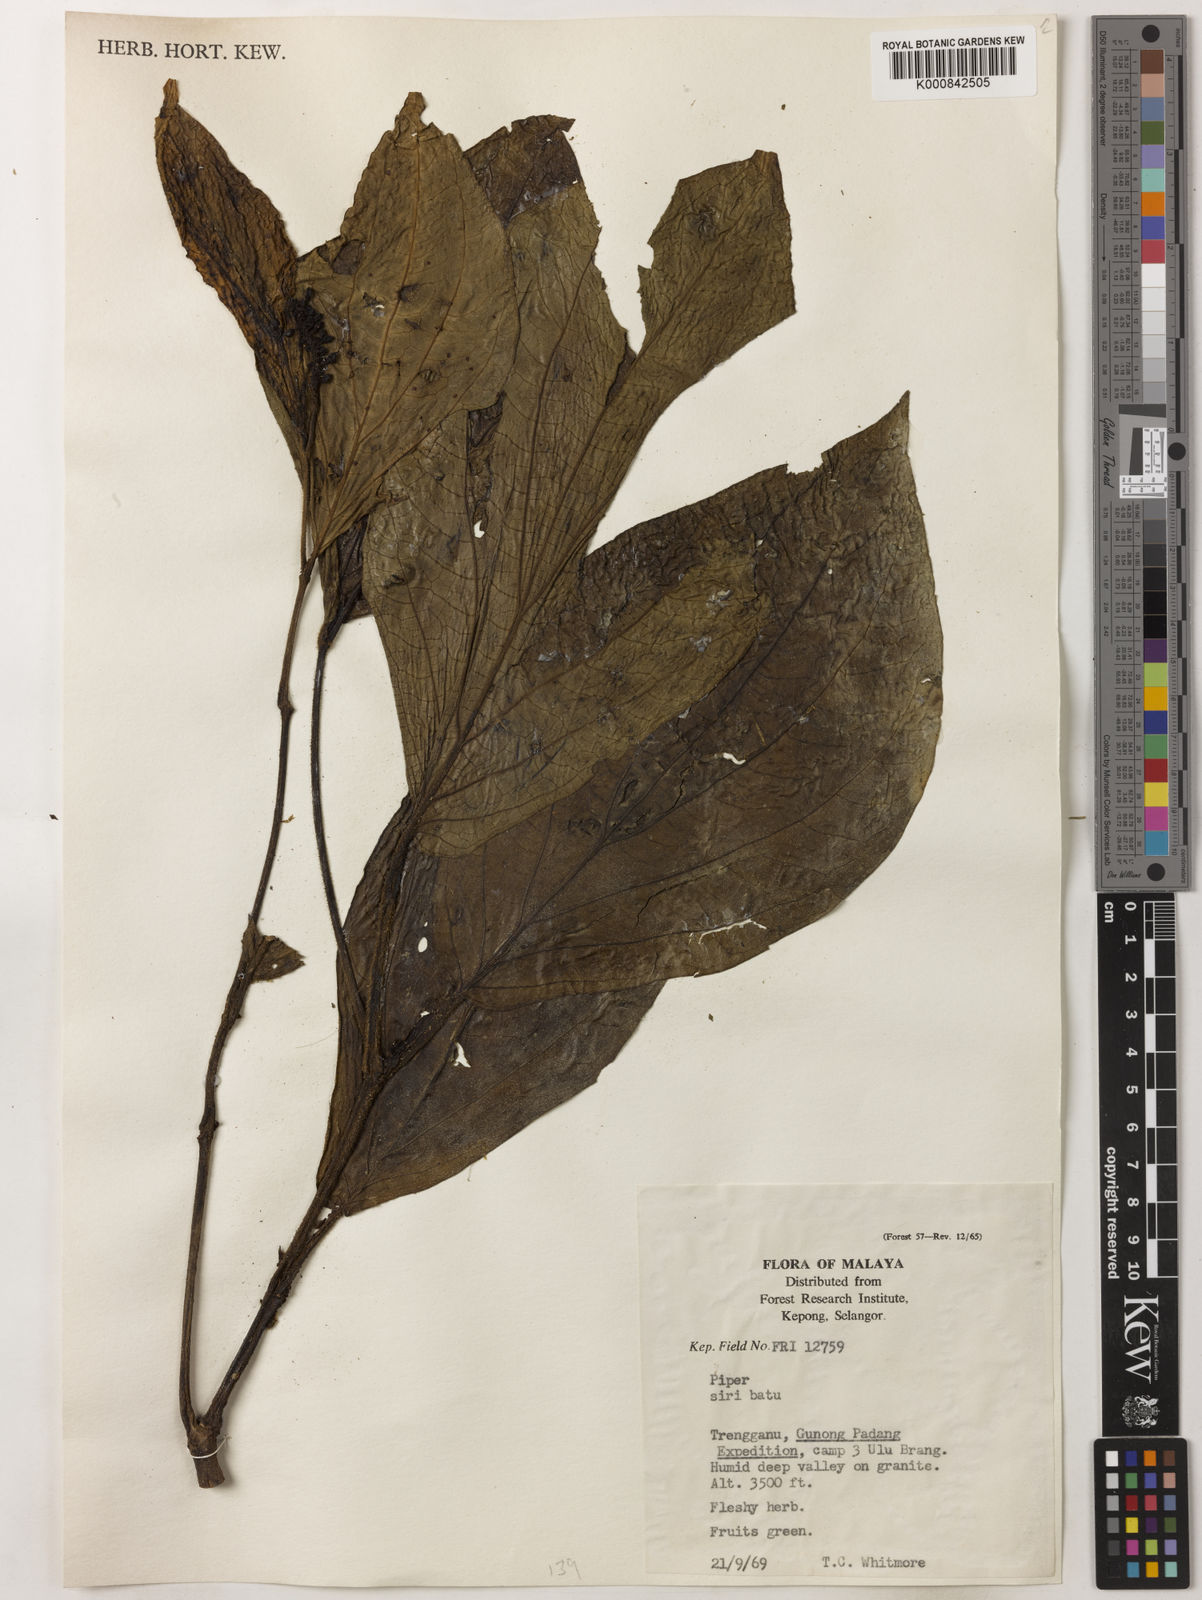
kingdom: Plantae
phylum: Tracheophyta
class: Magnoliopsida
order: Piperales
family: Piperaceae
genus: Piper
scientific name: Piper
